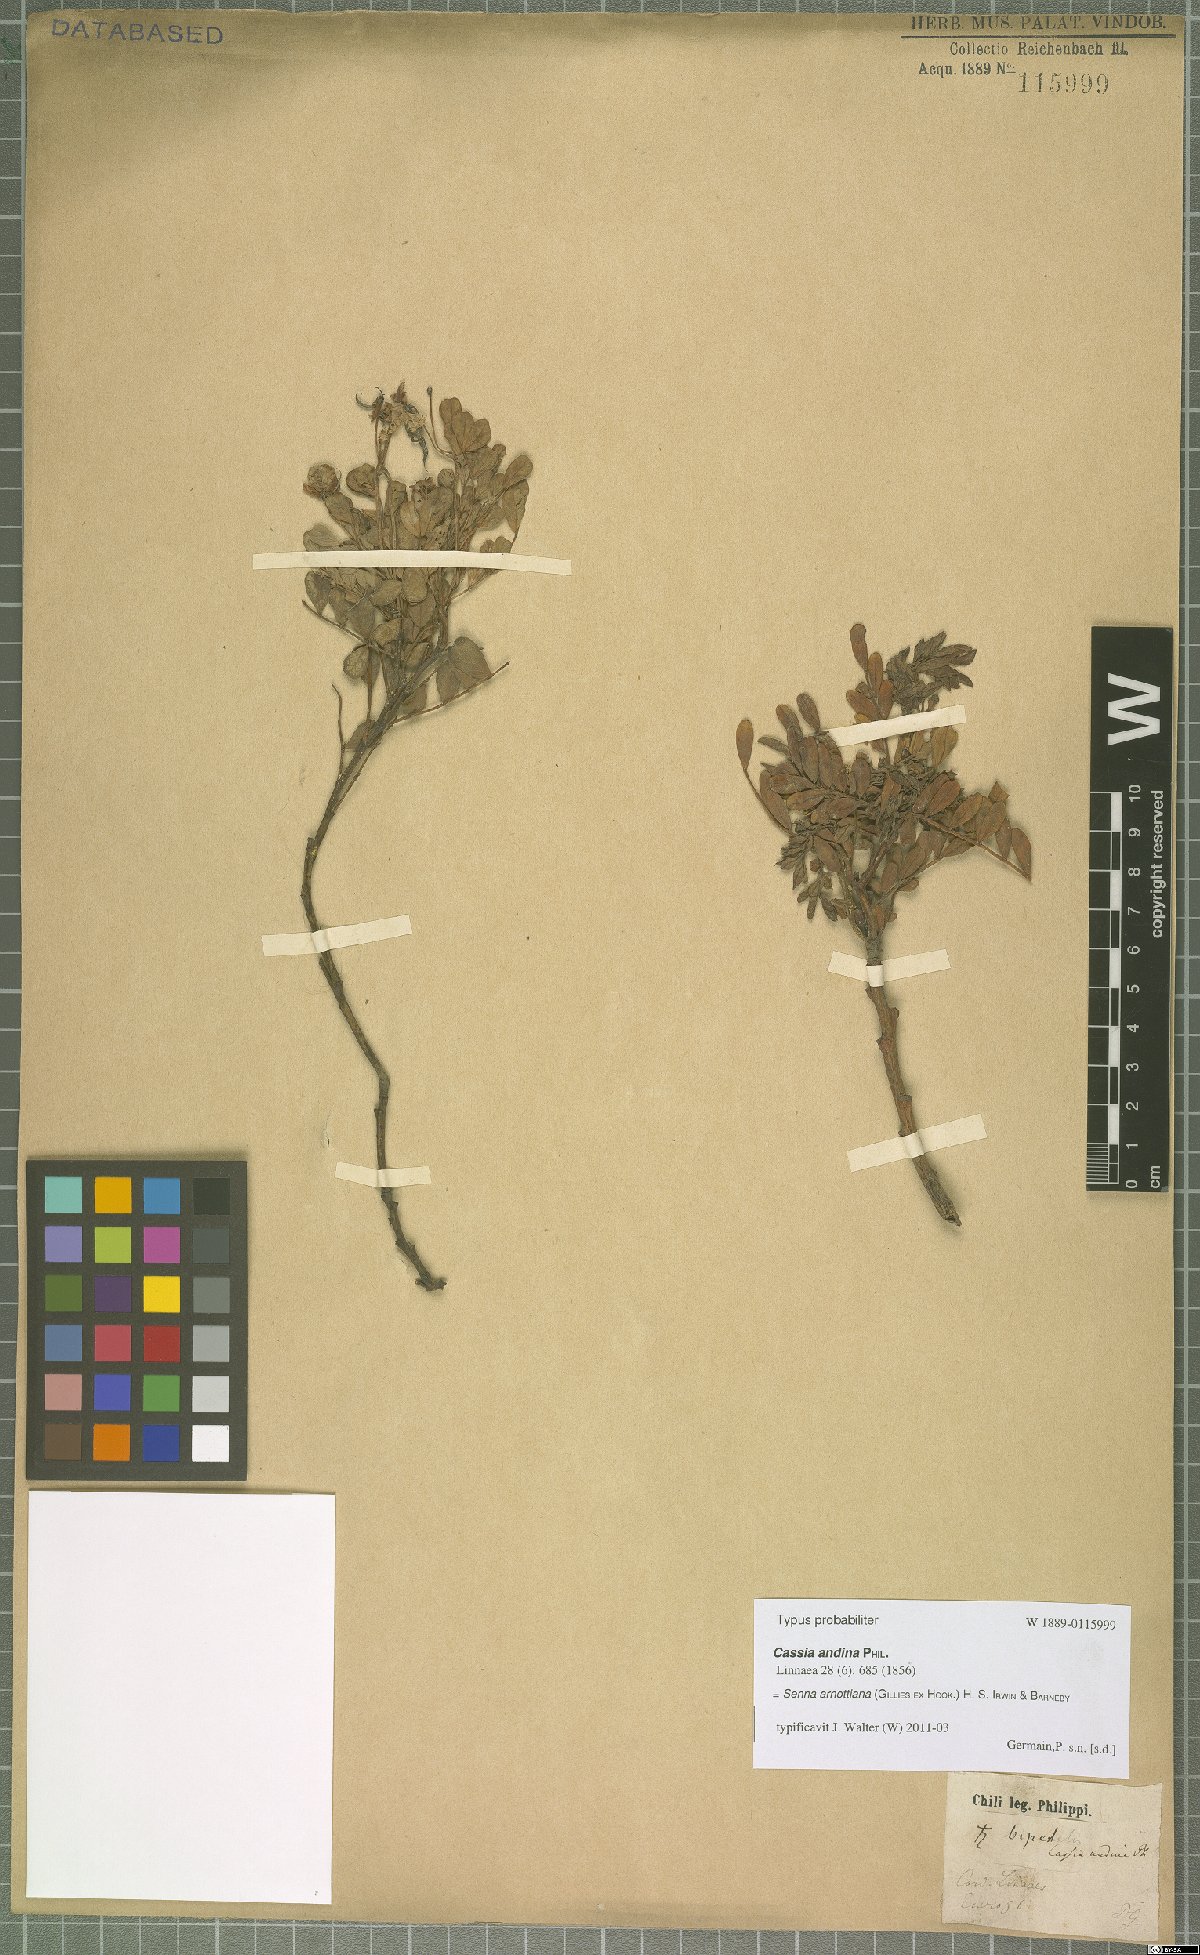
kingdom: Plantae
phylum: Tracheophyta
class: Magnoliopsida
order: Fabales
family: Fabaceae
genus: Senna
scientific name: Senna arnottiana
